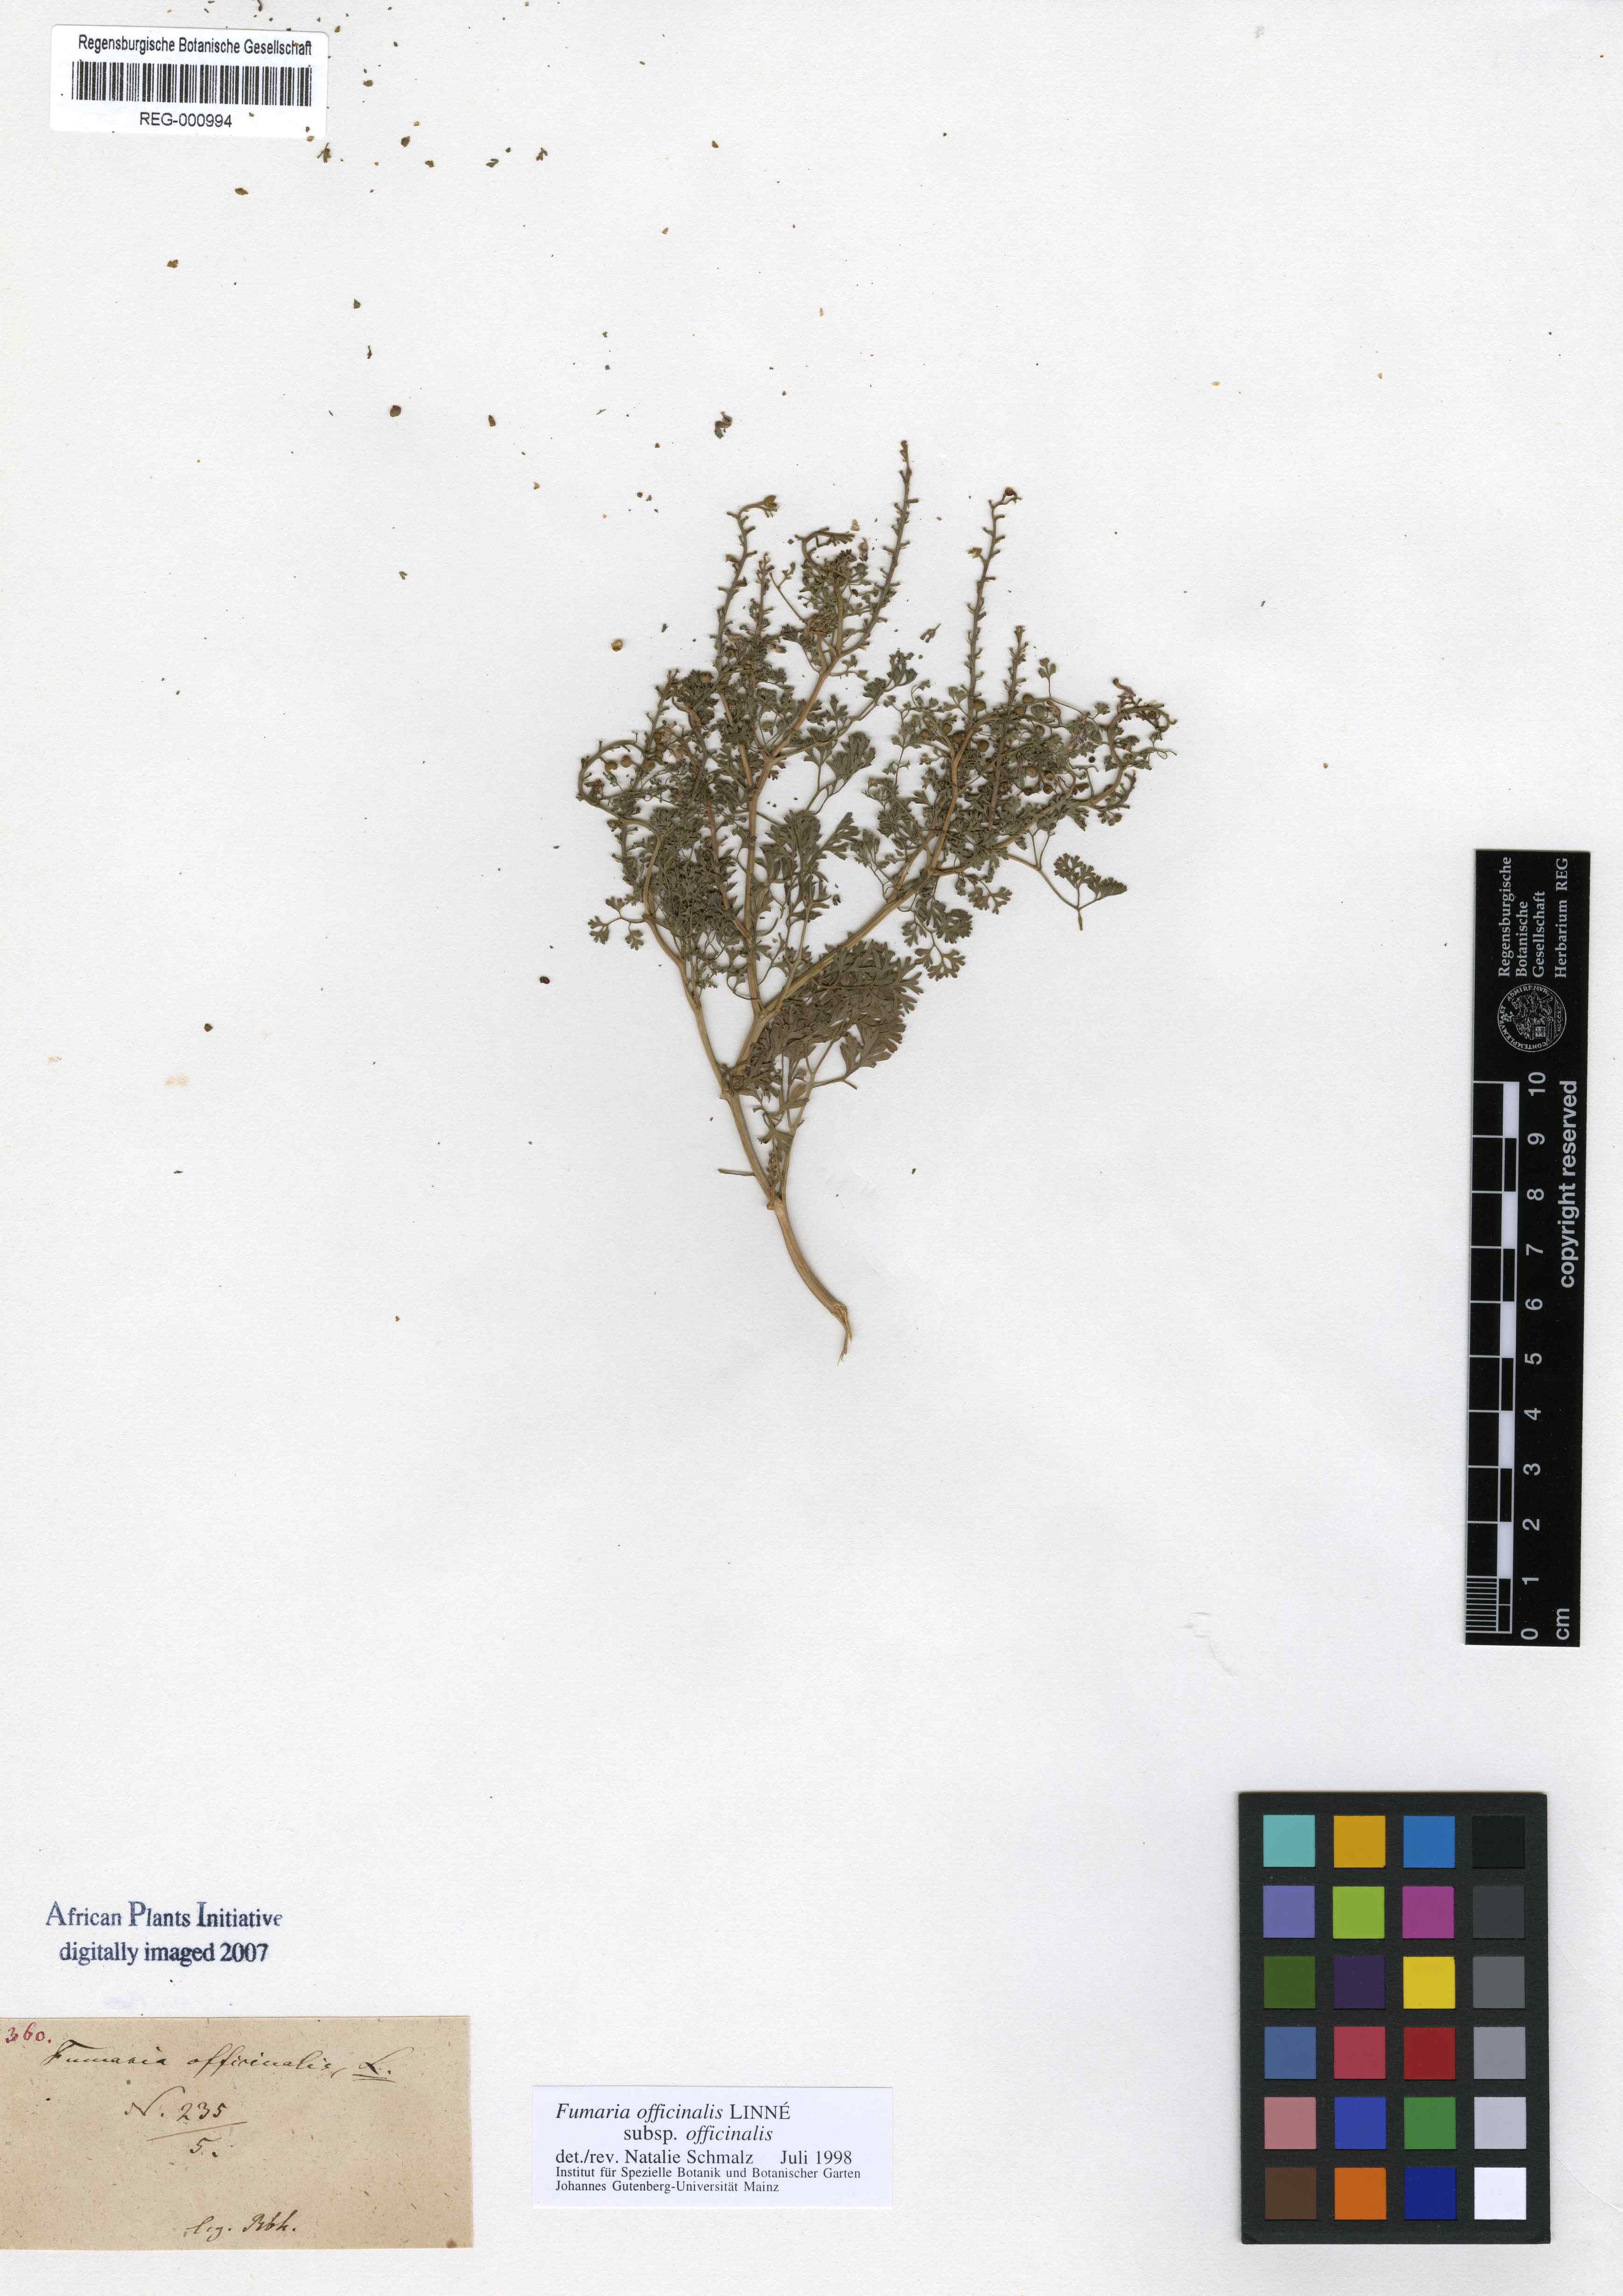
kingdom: Plantae
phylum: Tracheophyta
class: Magnoliopsida
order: Ranunculales
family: Papaveraceae
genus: Fumaria
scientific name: Fumaria officinalis
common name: Common fumitory
